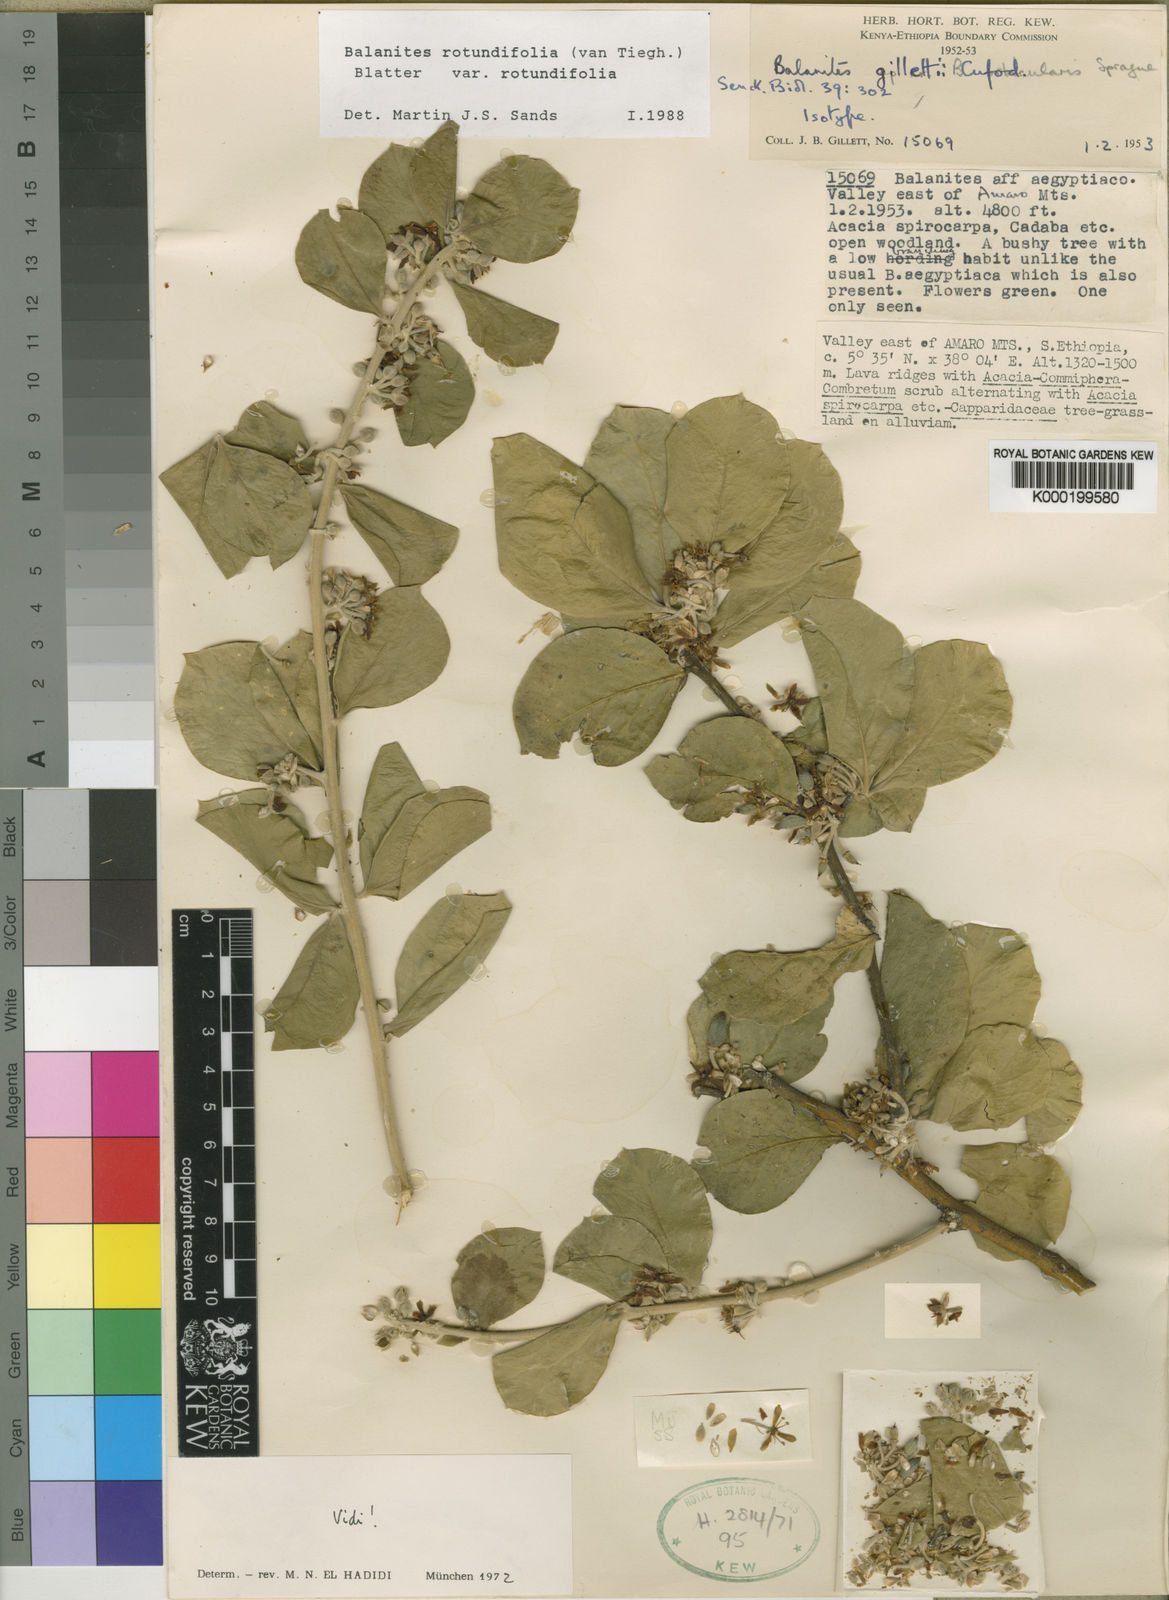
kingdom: Plantae
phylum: Tracheophyta
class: Magnoliopsida
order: Zygophyllales
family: Zygophyllaceae
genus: Balanites
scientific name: Balanites rotundifolia
